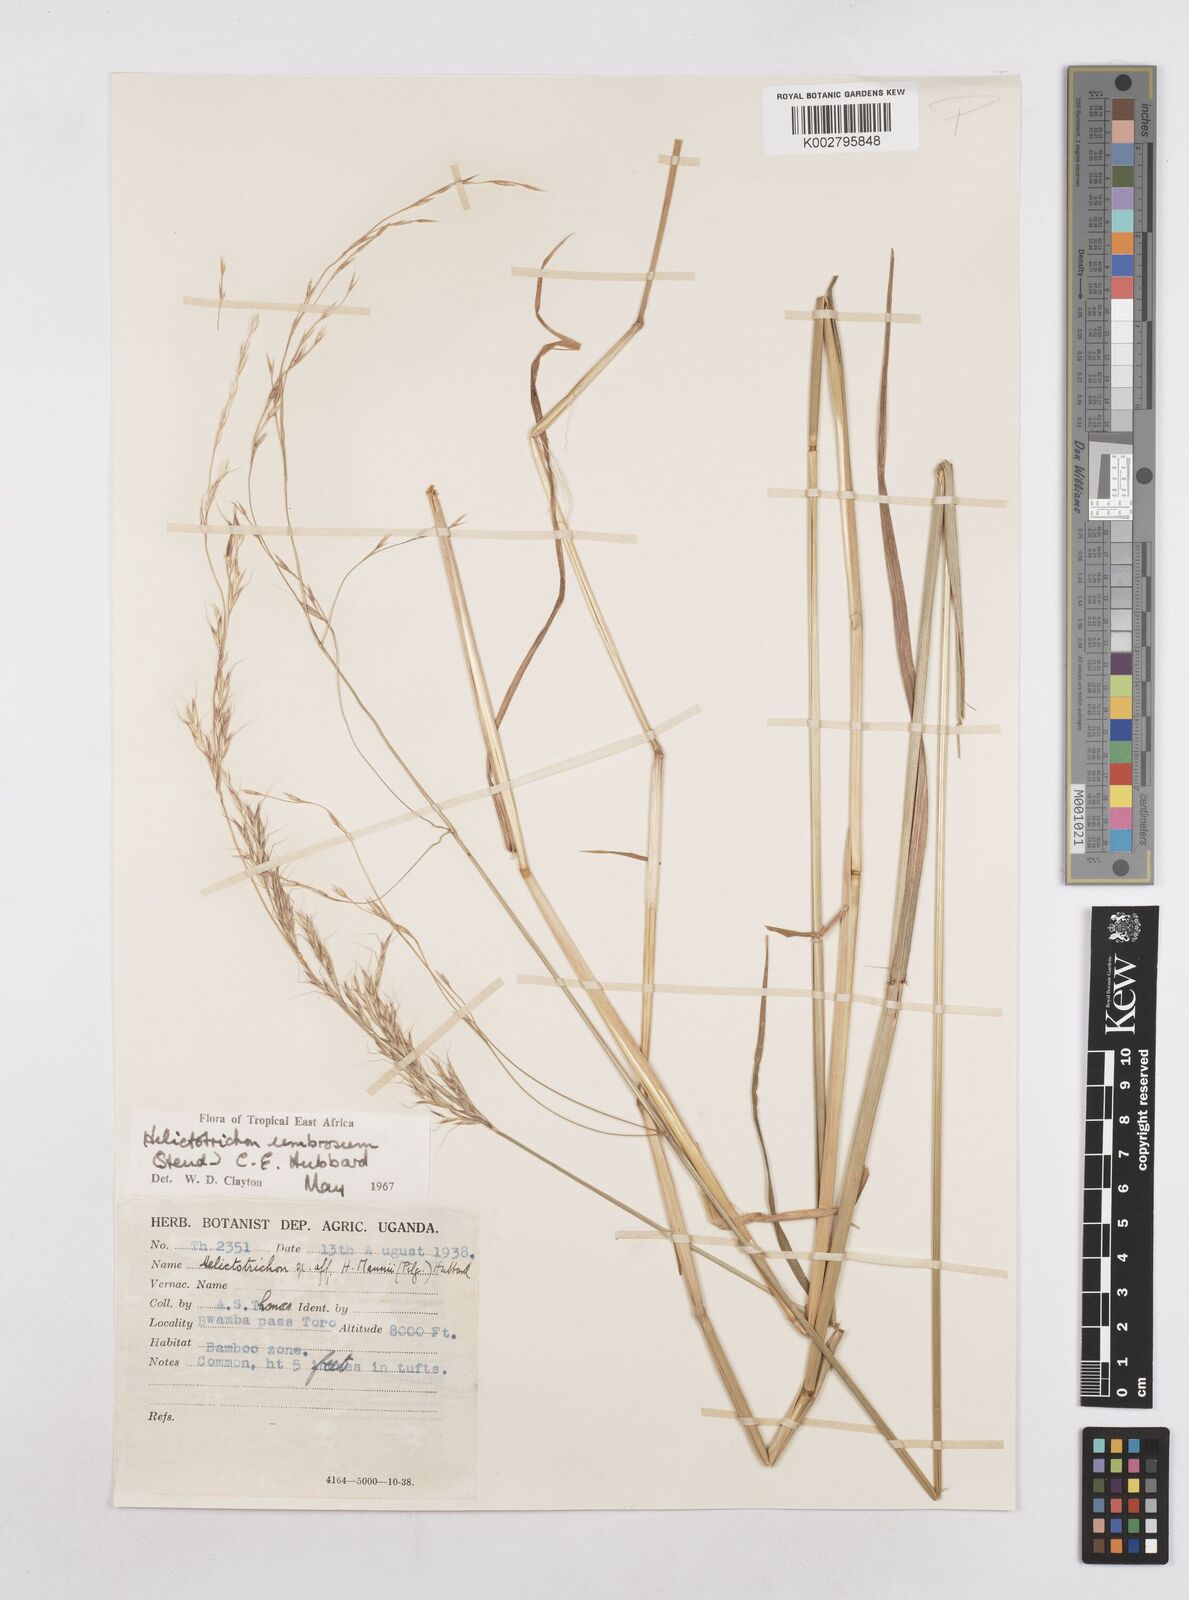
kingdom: Plantae
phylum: Tracheophyta
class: Liliopsida
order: Poales
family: Poaceae
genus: Trisetopsis
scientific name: Trisetopsis umbrosa
